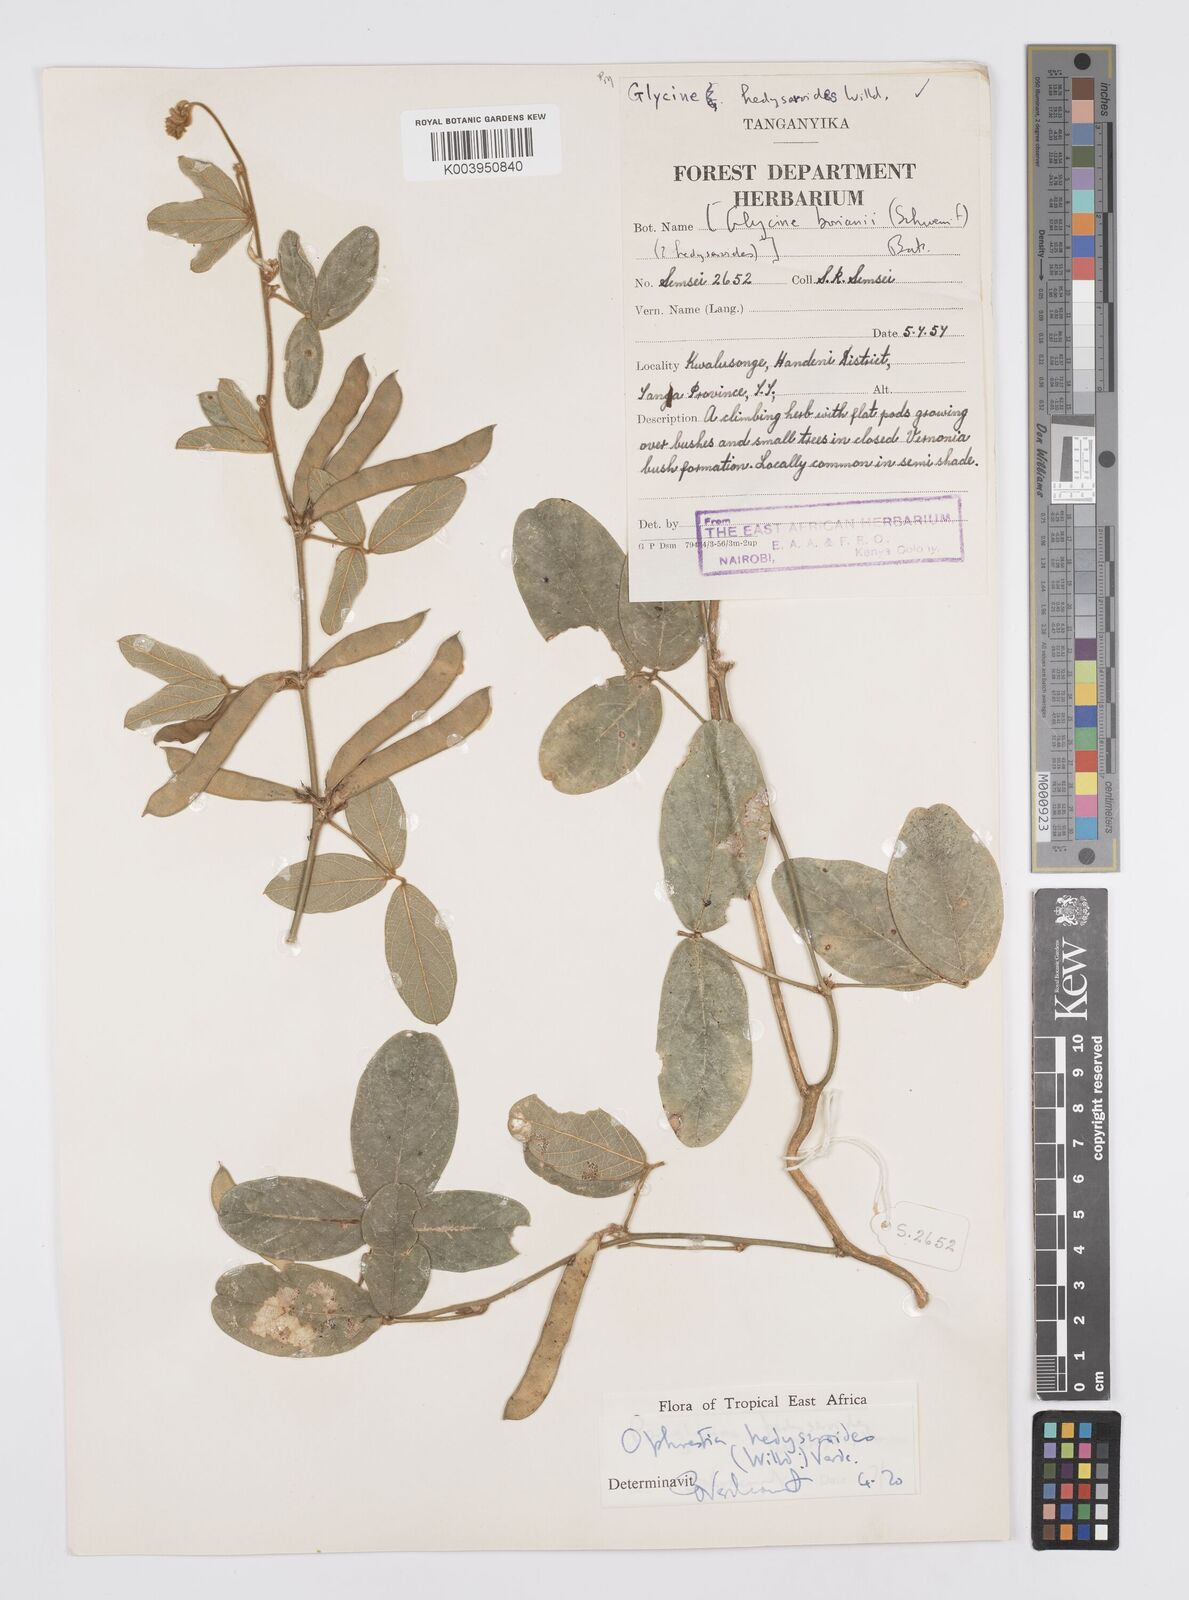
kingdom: Plantae
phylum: Tracheophyta
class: Magnoliopsida
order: Fabales
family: Fabaceae
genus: Ophrestia
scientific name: Ophrestia hedysaroides
